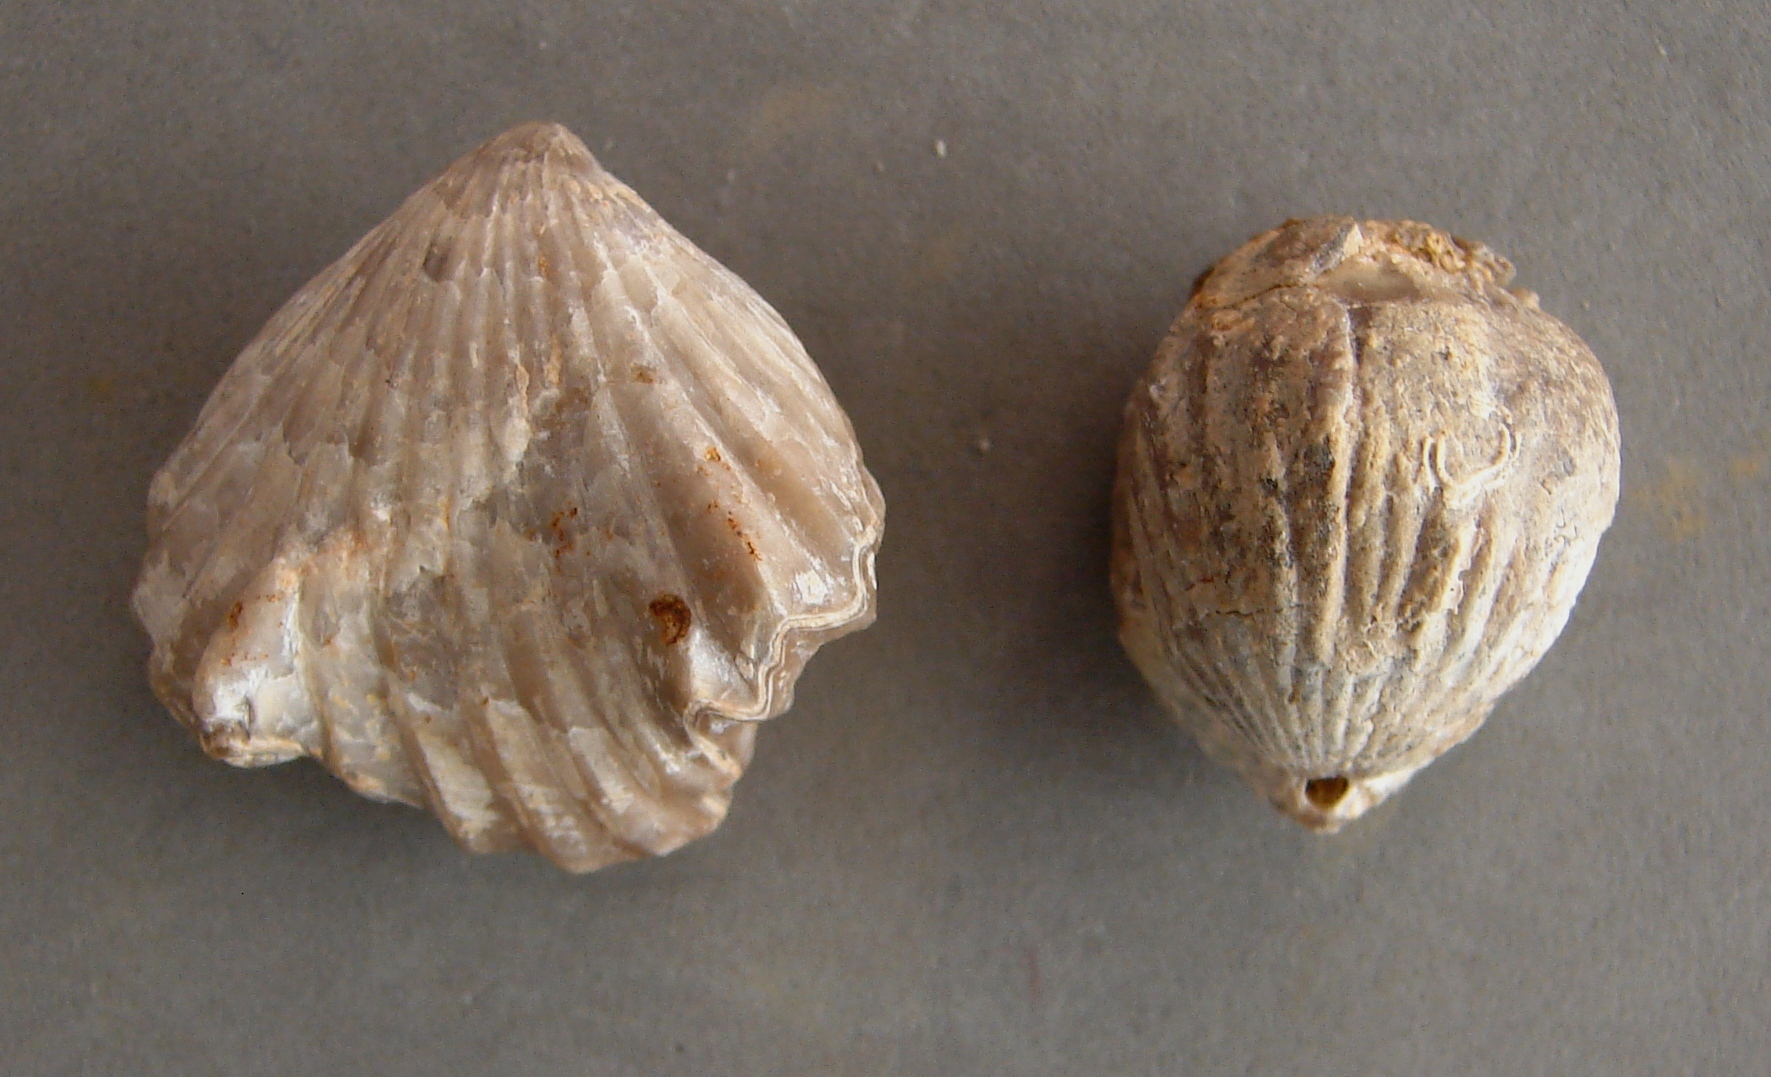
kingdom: Animalia
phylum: Brachiopoda
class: Rhynchonellata
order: Rhynchonellida
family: Rhynchonellidae
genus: Cymatorhynchia
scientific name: Cymatorhynchia Terebratula quadriplicata
